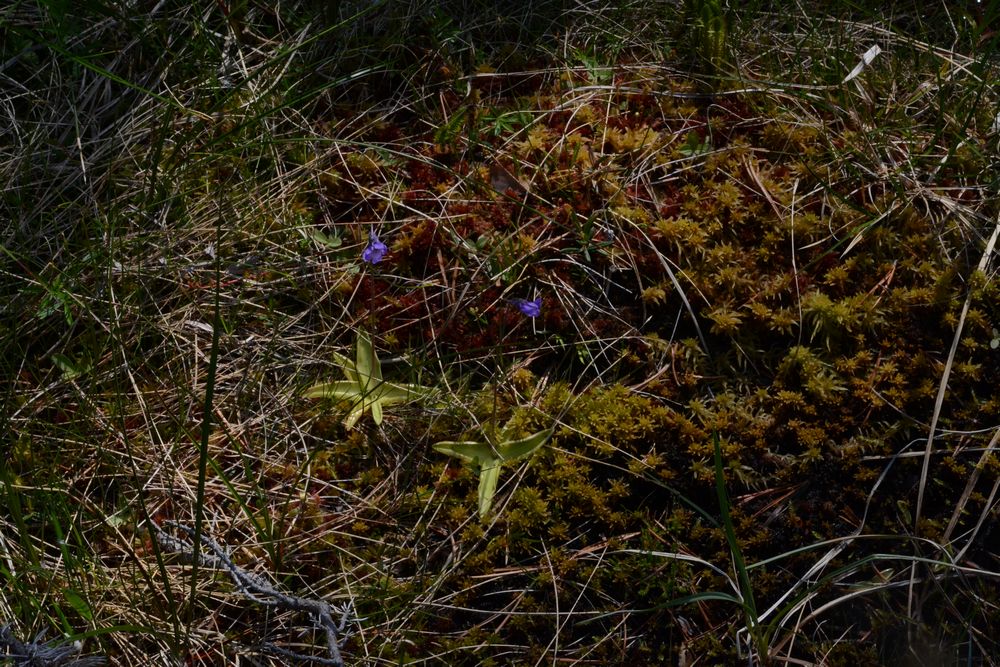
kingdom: Plantae
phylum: Tracheophyta
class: Magnoliopsida
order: Lamiales
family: Lentibulariaceae
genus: Pinguicula
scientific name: Pinguicula vulgaris
